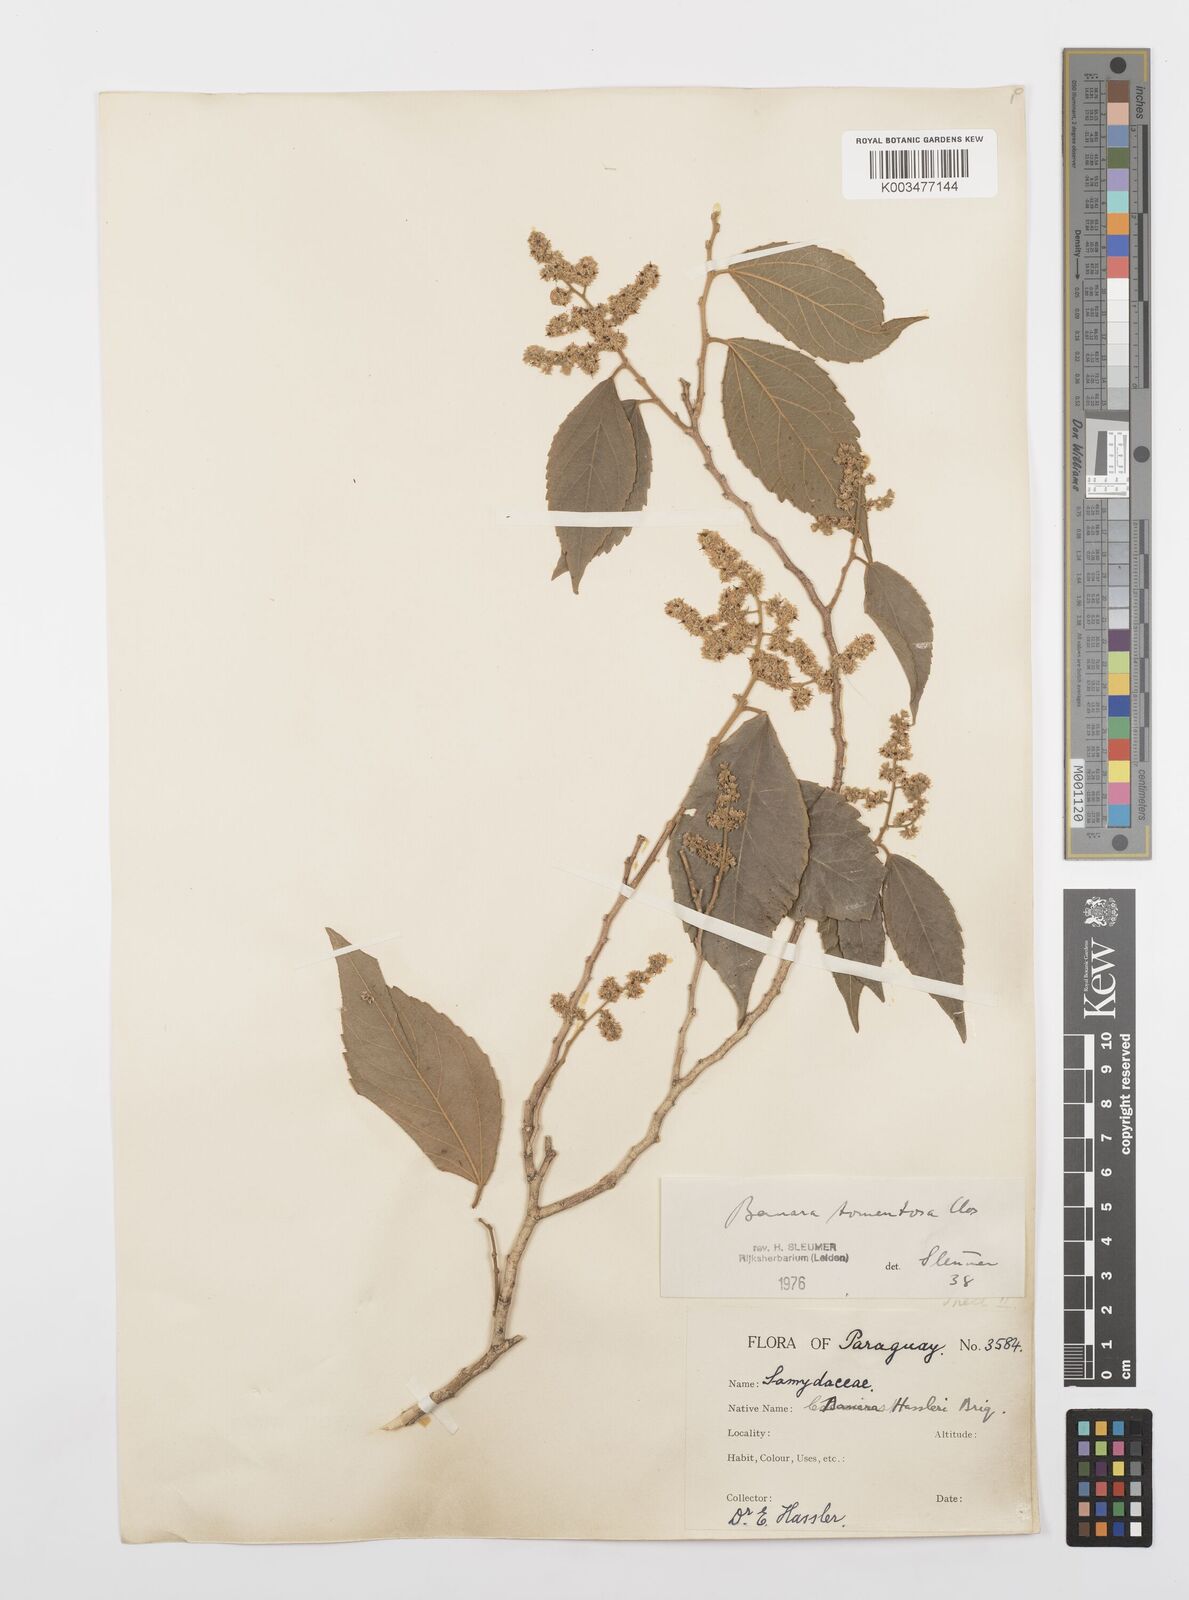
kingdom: Plantae
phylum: Tracheophyta
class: Magnoliopsida
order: Malpighiales
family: Salicaceae
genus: Banara
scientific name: Banara tomentosa
